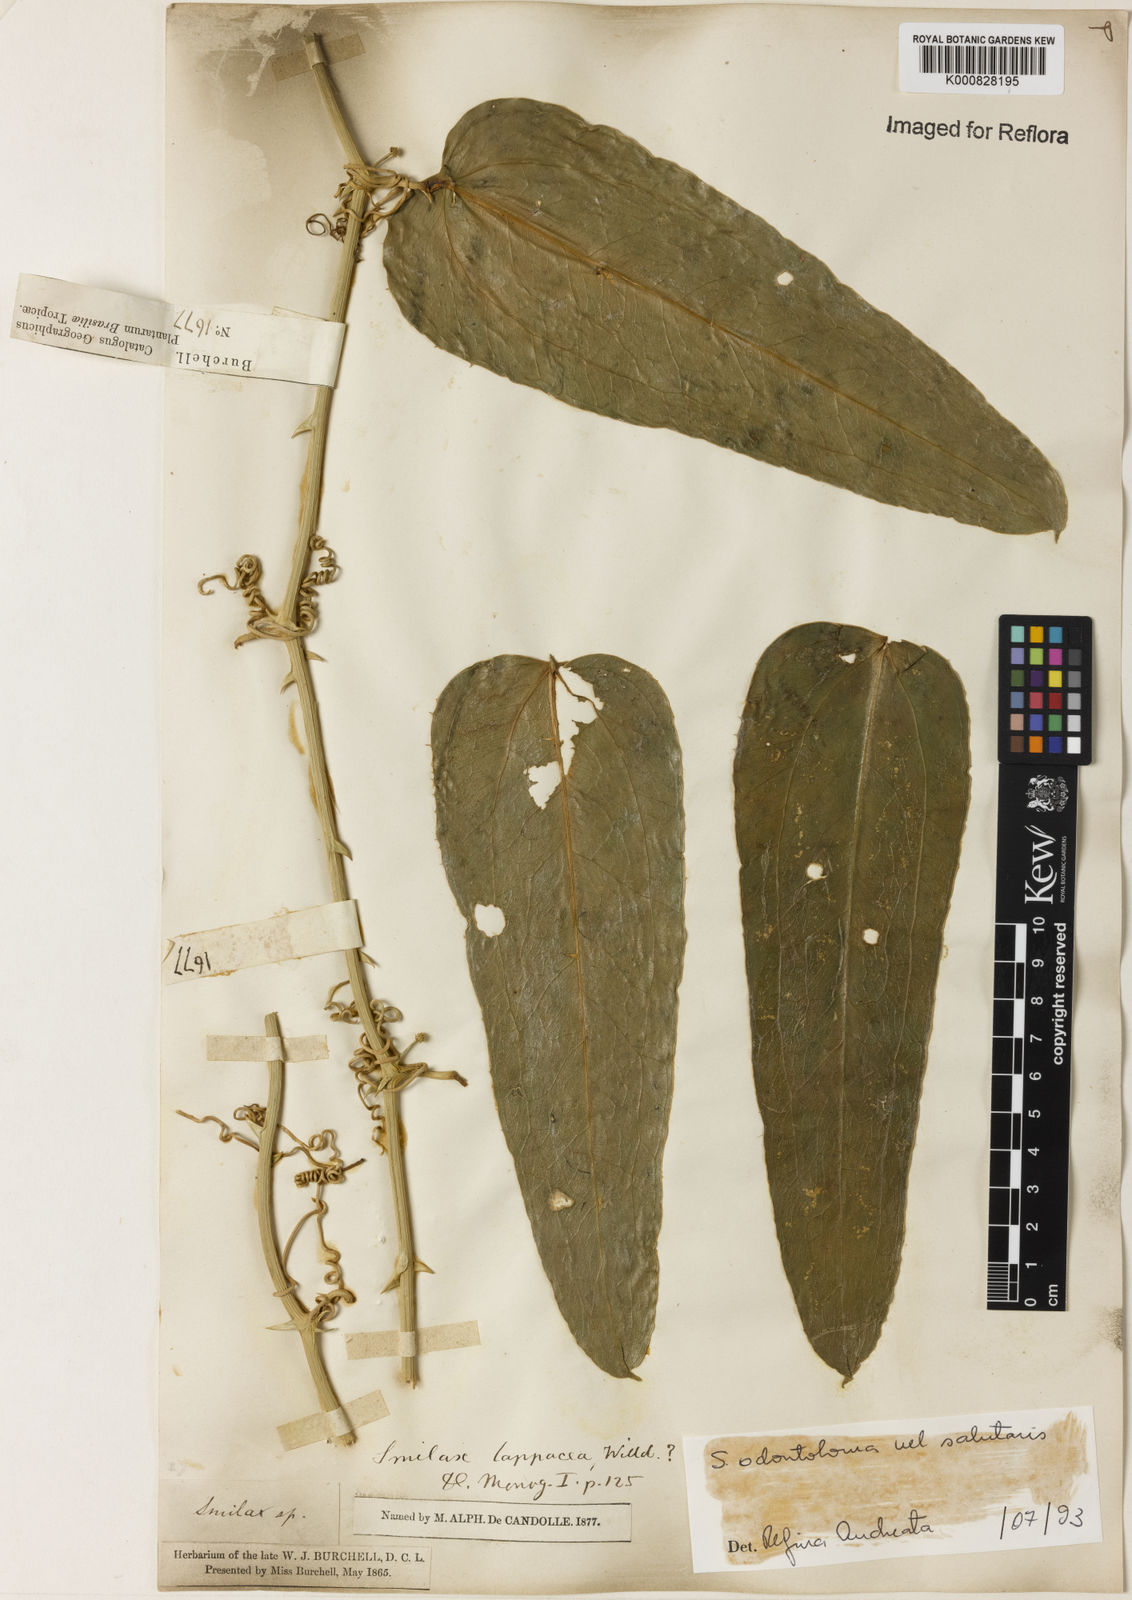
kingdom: Plantae
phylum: Tracheophyta
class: Liliopsida
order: Liliales
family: Smilacaceae
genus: Smilax
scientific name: Smilax
